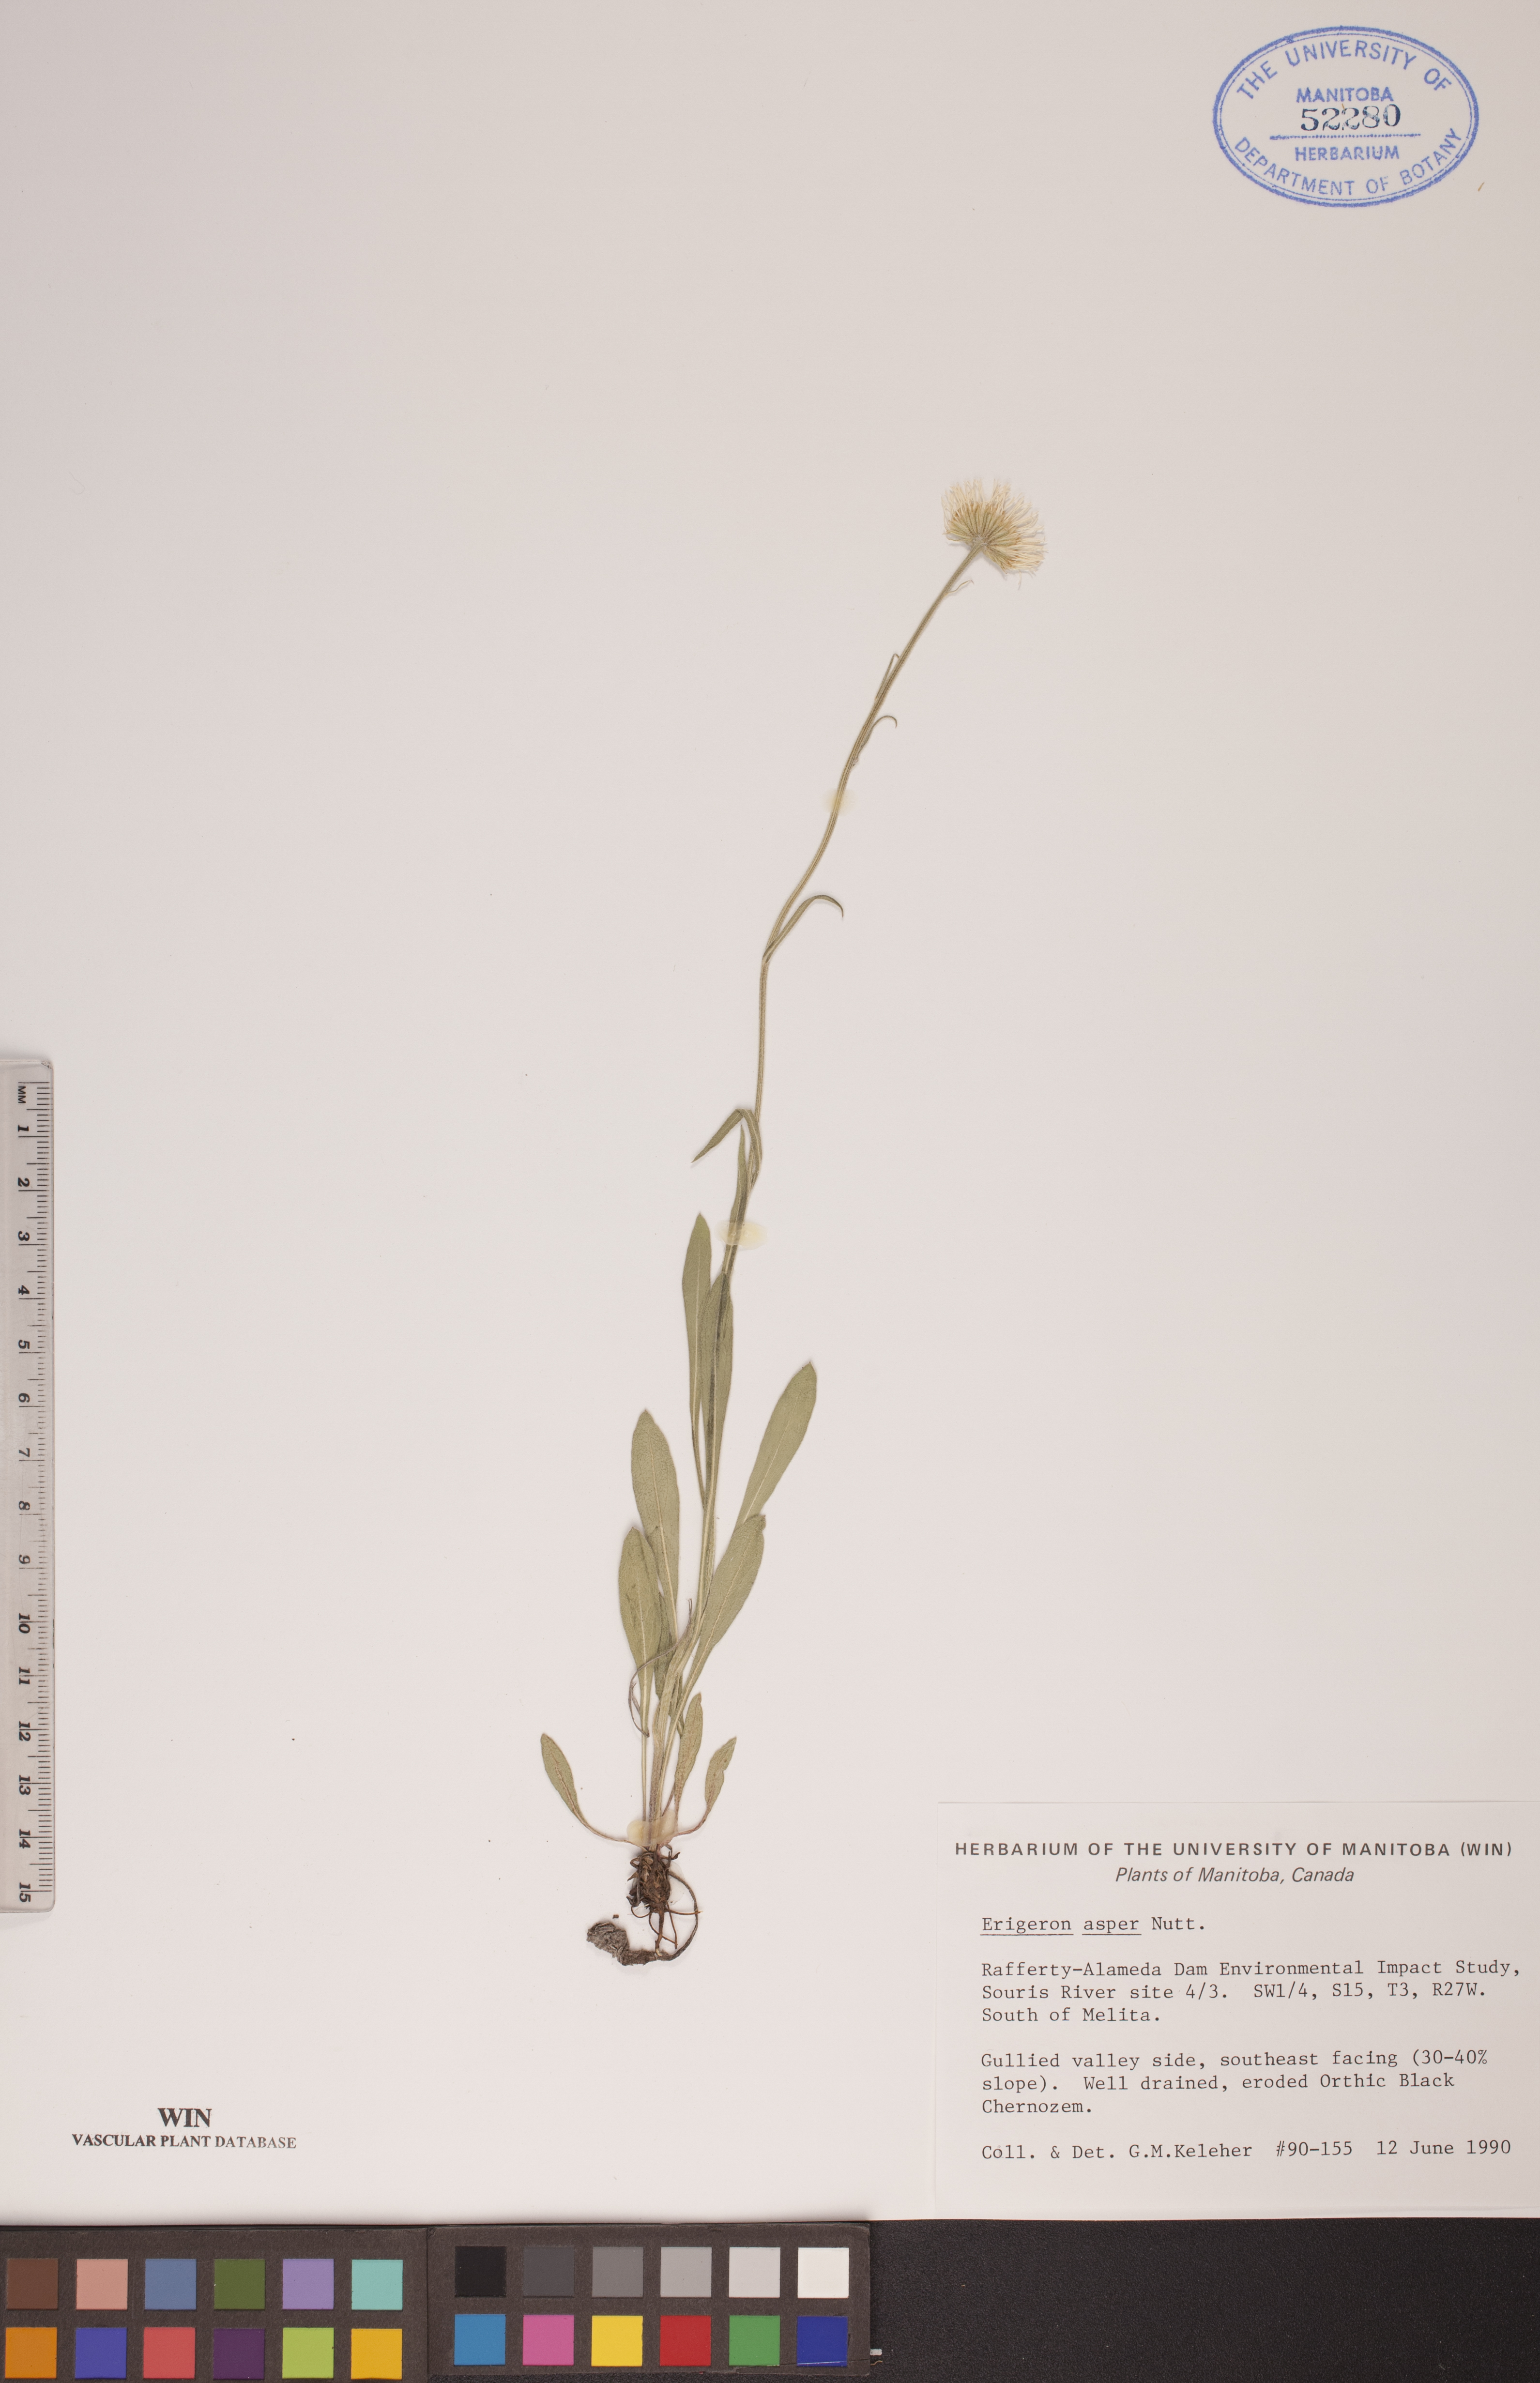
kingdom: Plantae
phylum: Tracheophyta
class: Magnoliopsida
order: Asterales
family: Asteraceae
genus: Erigeron
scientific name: Erigeron glabellus
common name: Smooth fleabane
